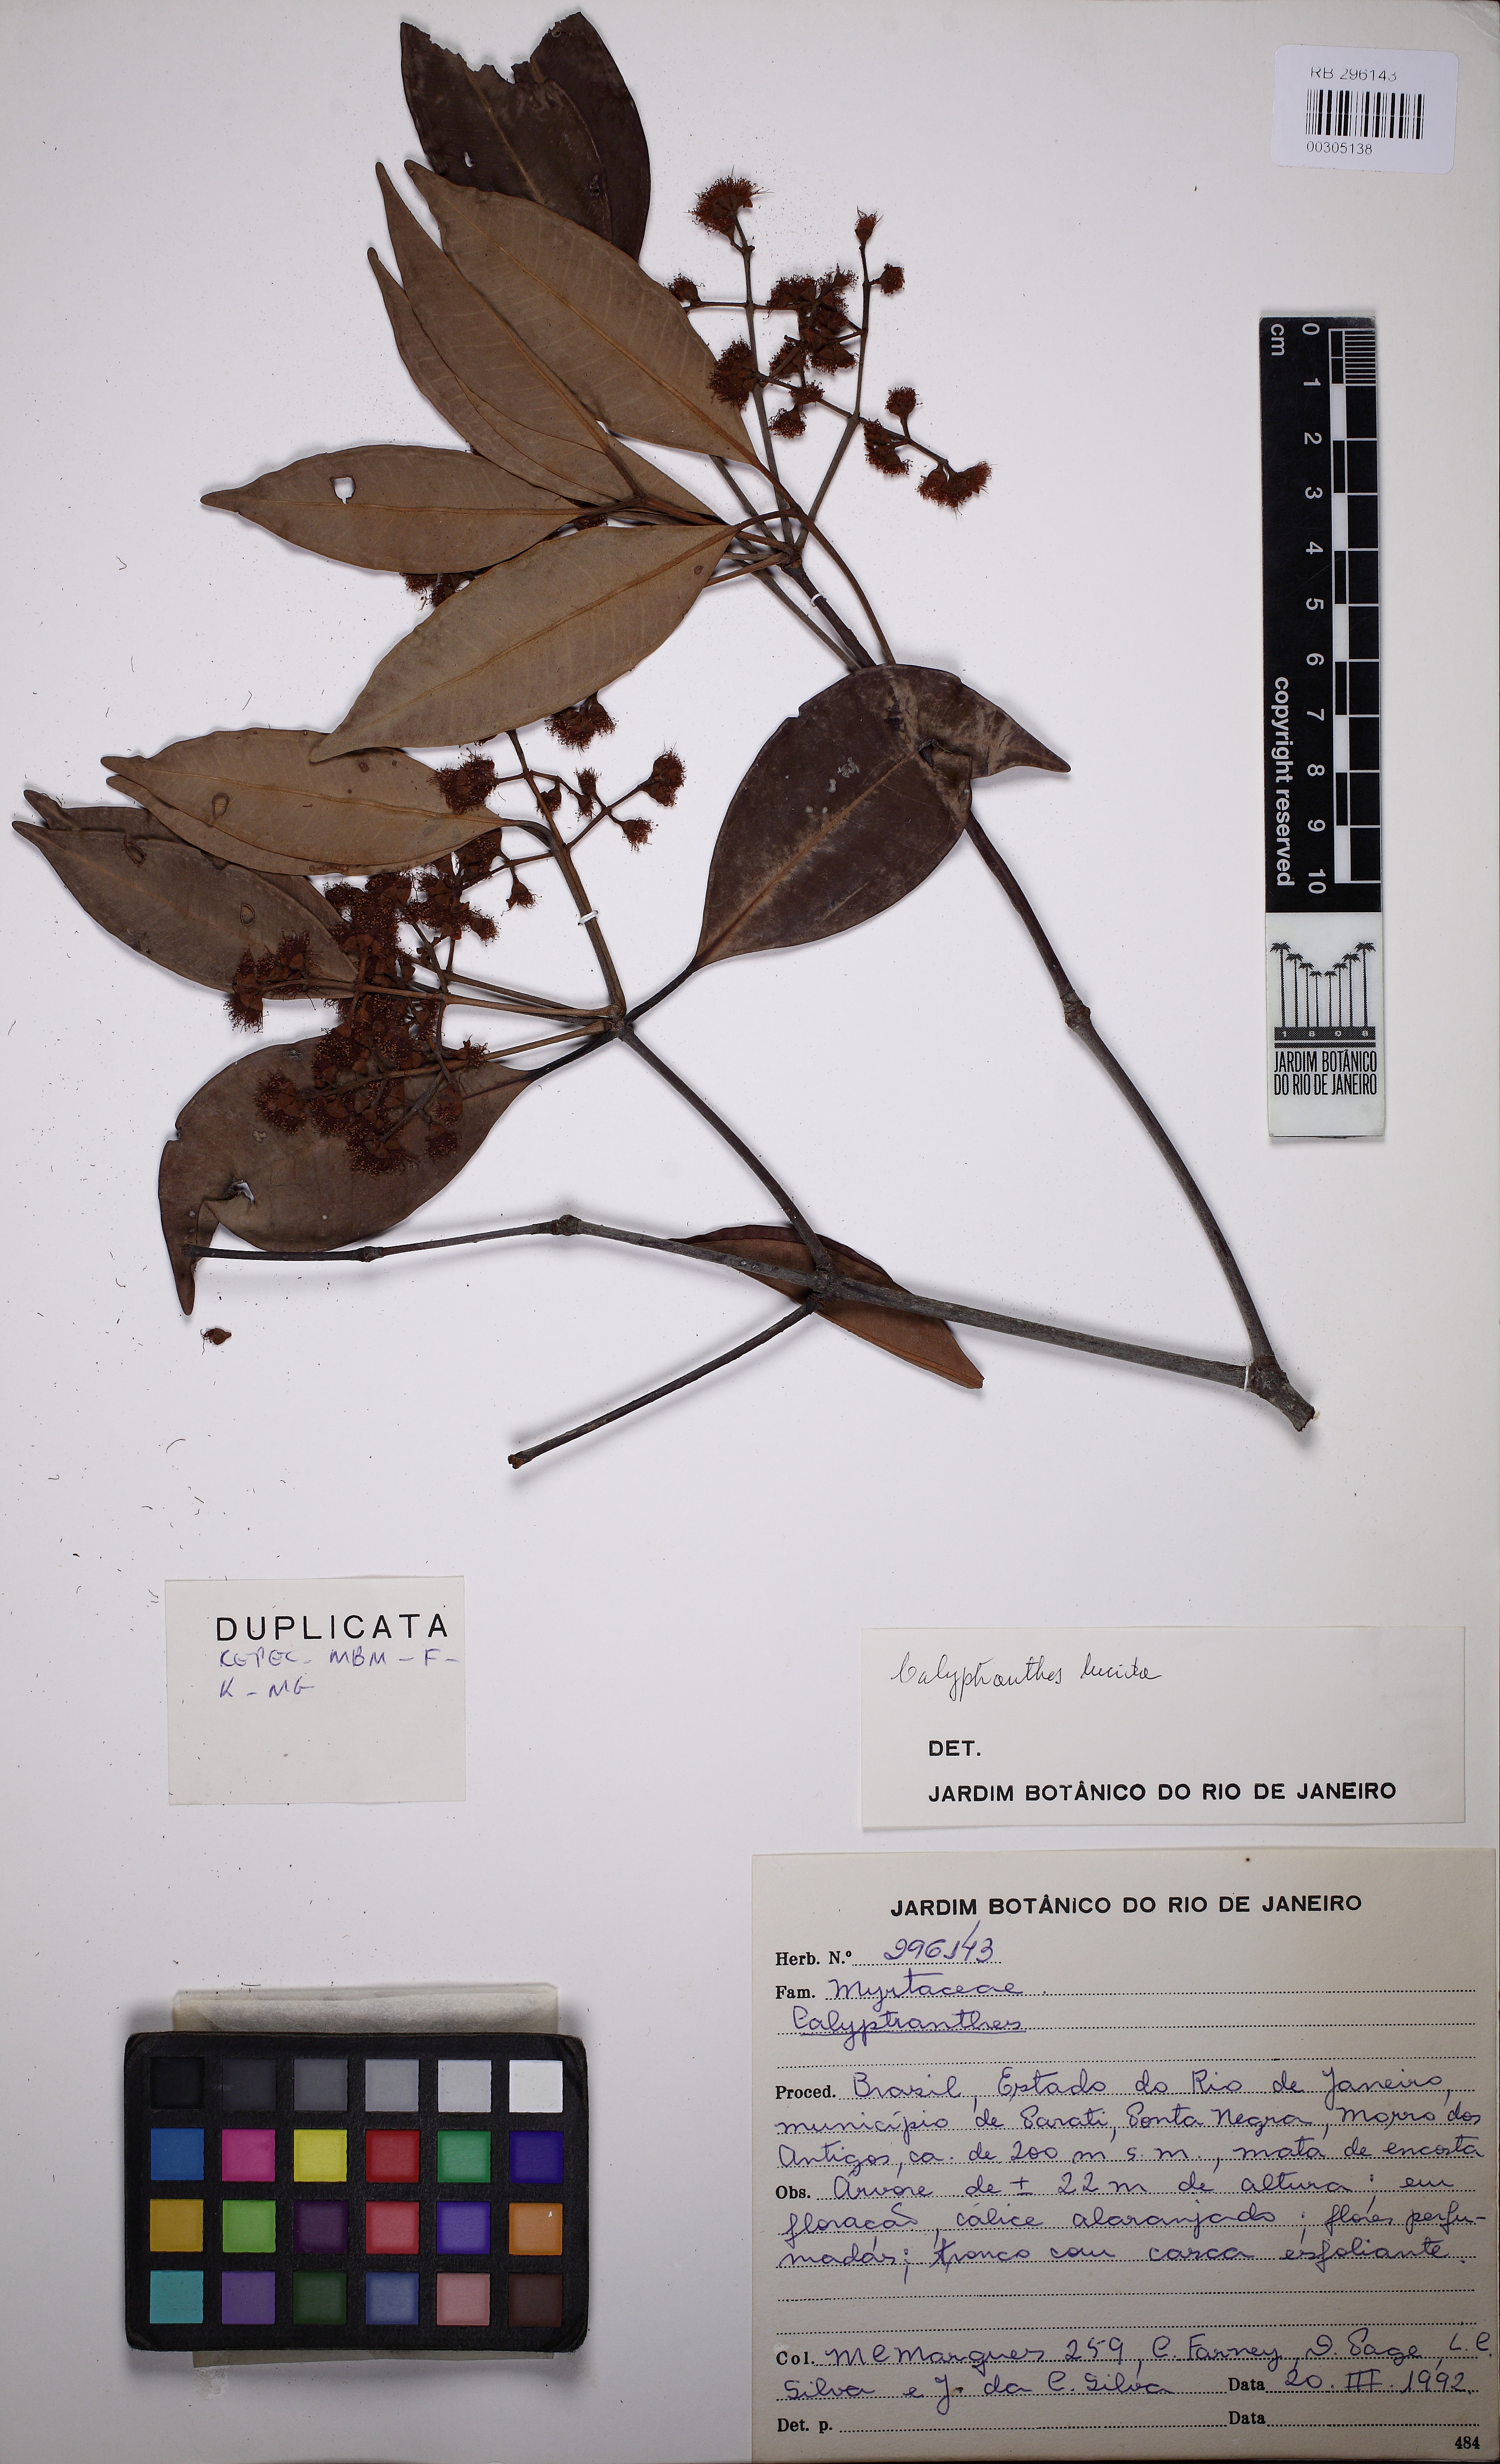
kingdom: Plantae
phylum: Tracheophyta
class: Magnoliopsida
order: Myrtales
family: Myrtaceae
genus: Myrcia
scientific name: Myrcia neolucida
